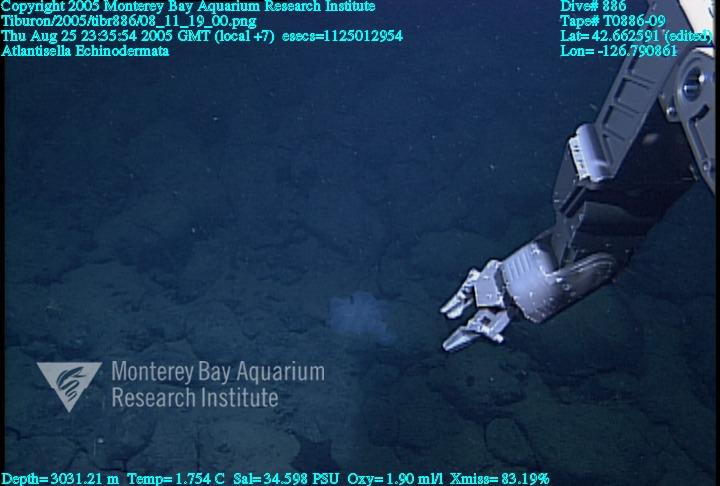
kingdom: Animalia
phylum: Porifera
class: Hexactinellida
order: Lyssacinosida
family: Euplectellidae
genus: Atlantisella
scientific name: Atlantisella
